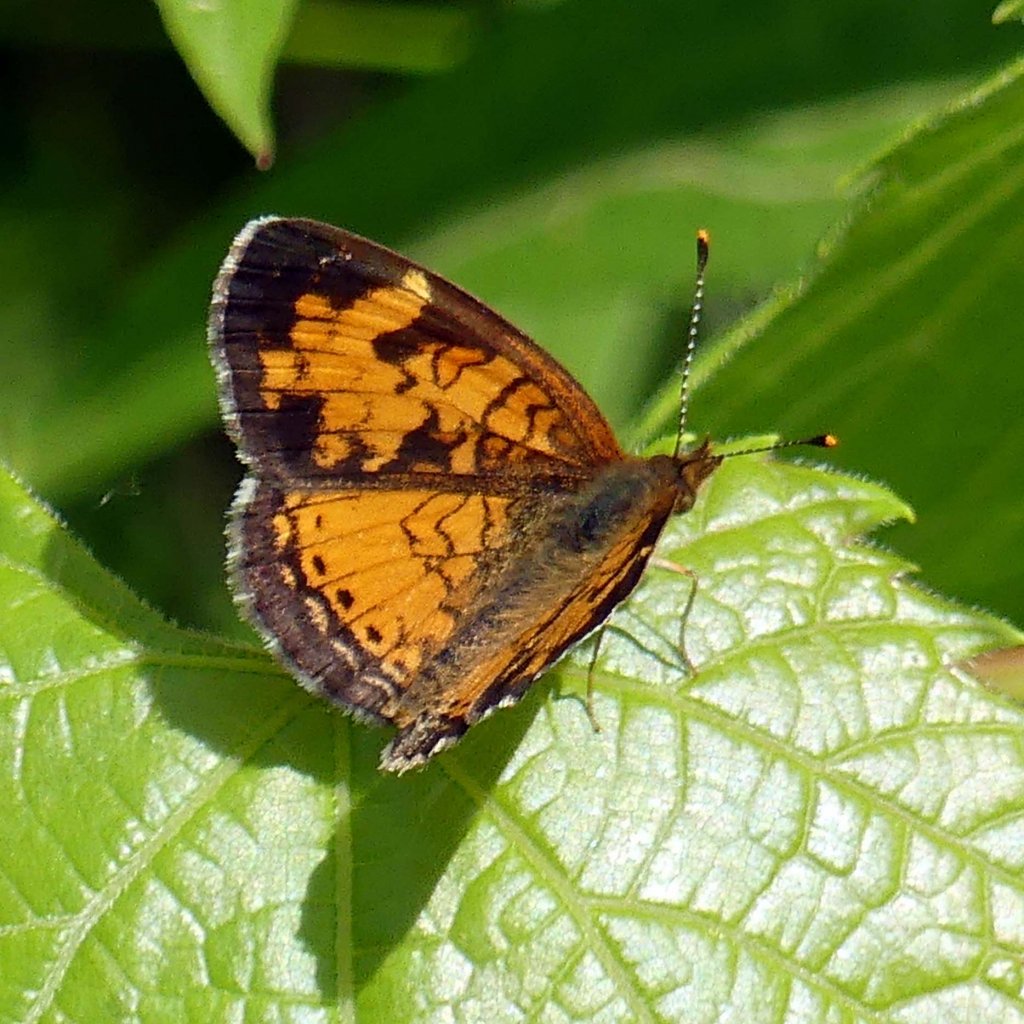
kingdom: Animalia
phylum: Arthropoda
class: Insecta
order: Lepidoptera
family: Nymphalidae
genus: Phyciodes
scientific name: Phyciodes tharos
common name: Northern Crescent
